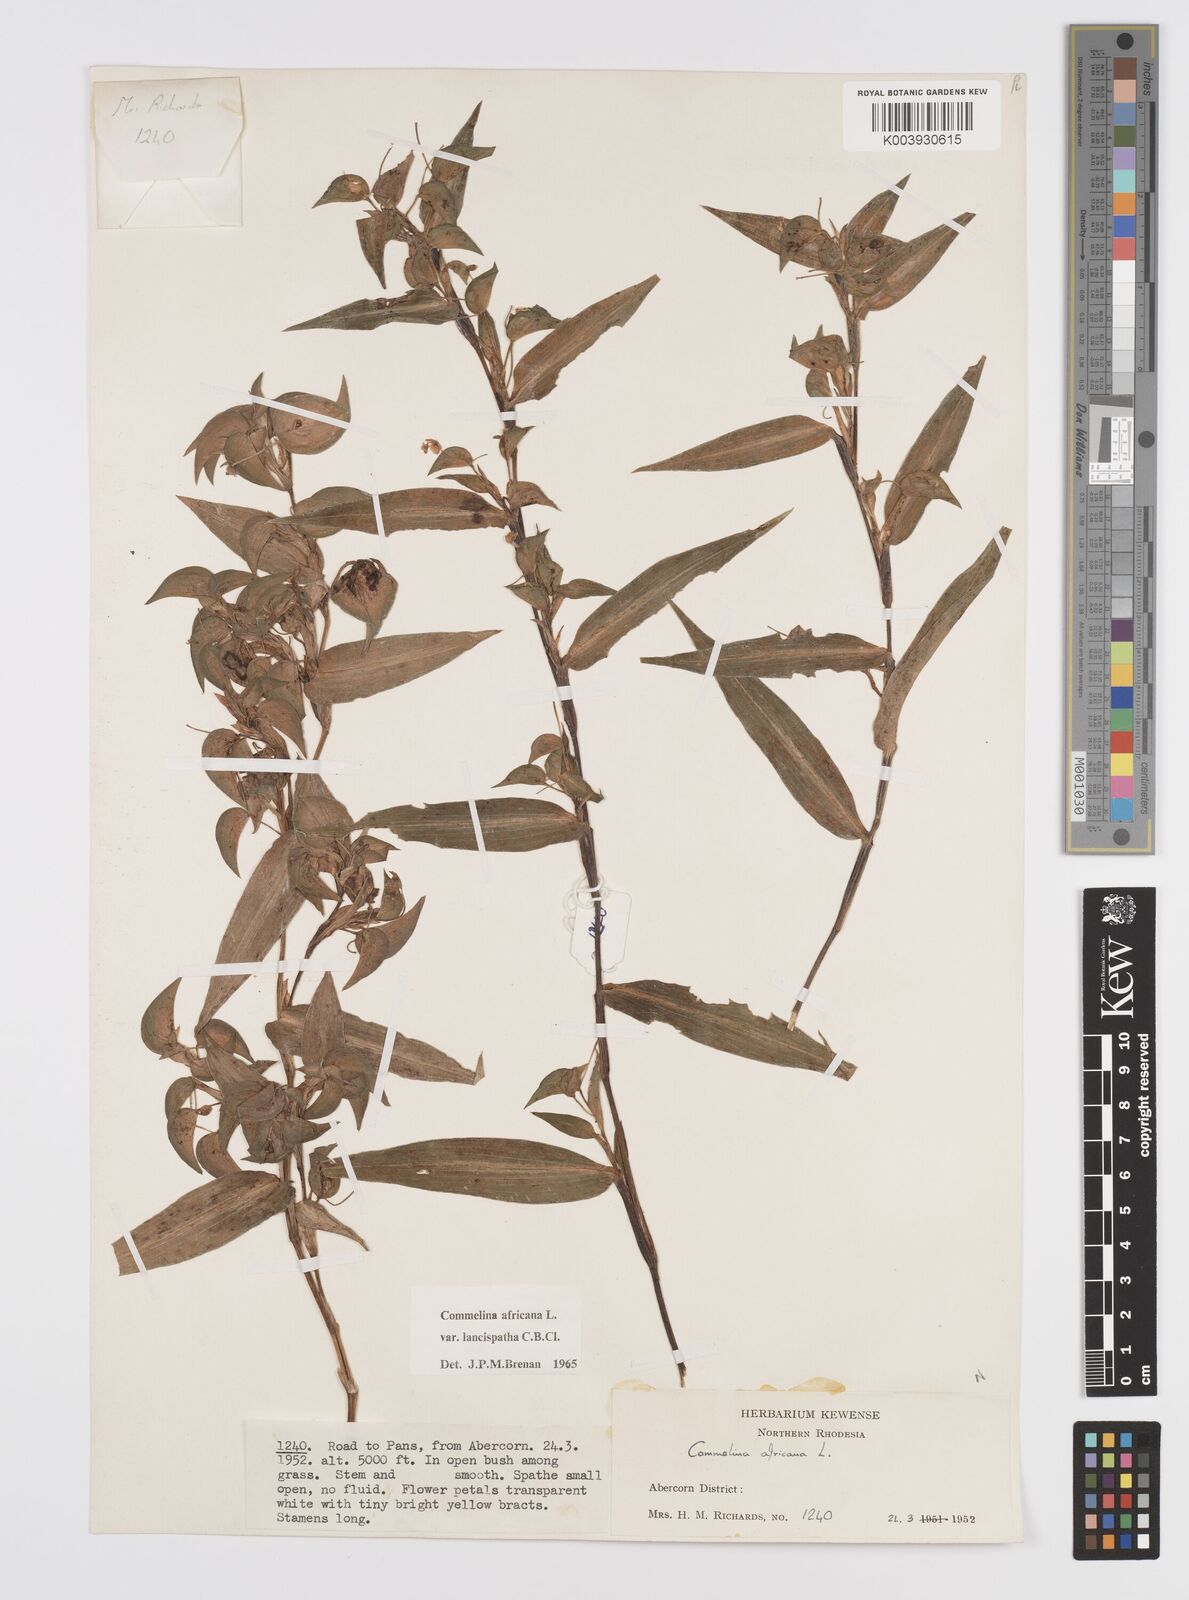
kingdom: Plantae
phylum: Tracheophyta
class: Liliopsida
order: Commelinales
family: Commelinaceae
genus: Commelina
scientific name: Commelina africana
